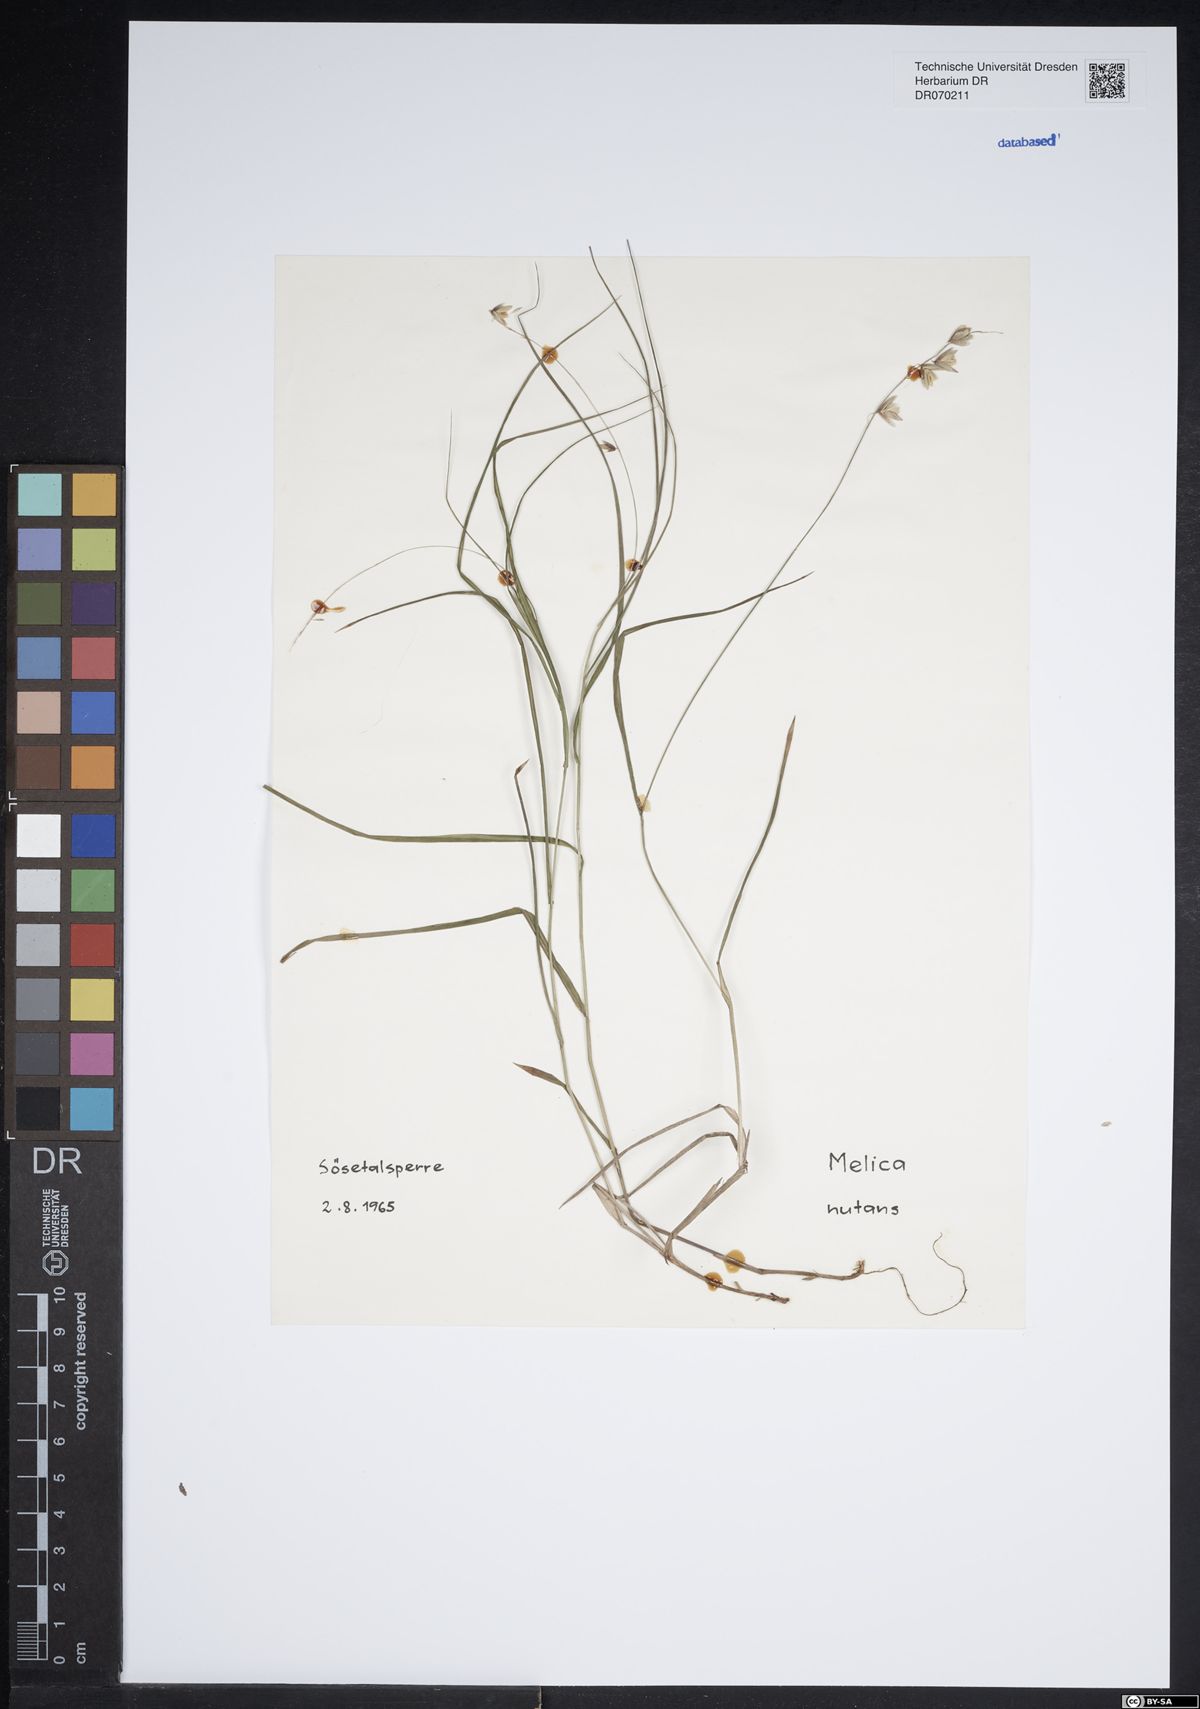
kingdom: Plantae
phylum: Tracheophyta
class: Liliopsida
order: Poales
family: Poaceae
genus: Melica
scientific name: Melica nutans
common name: Mountain melick
